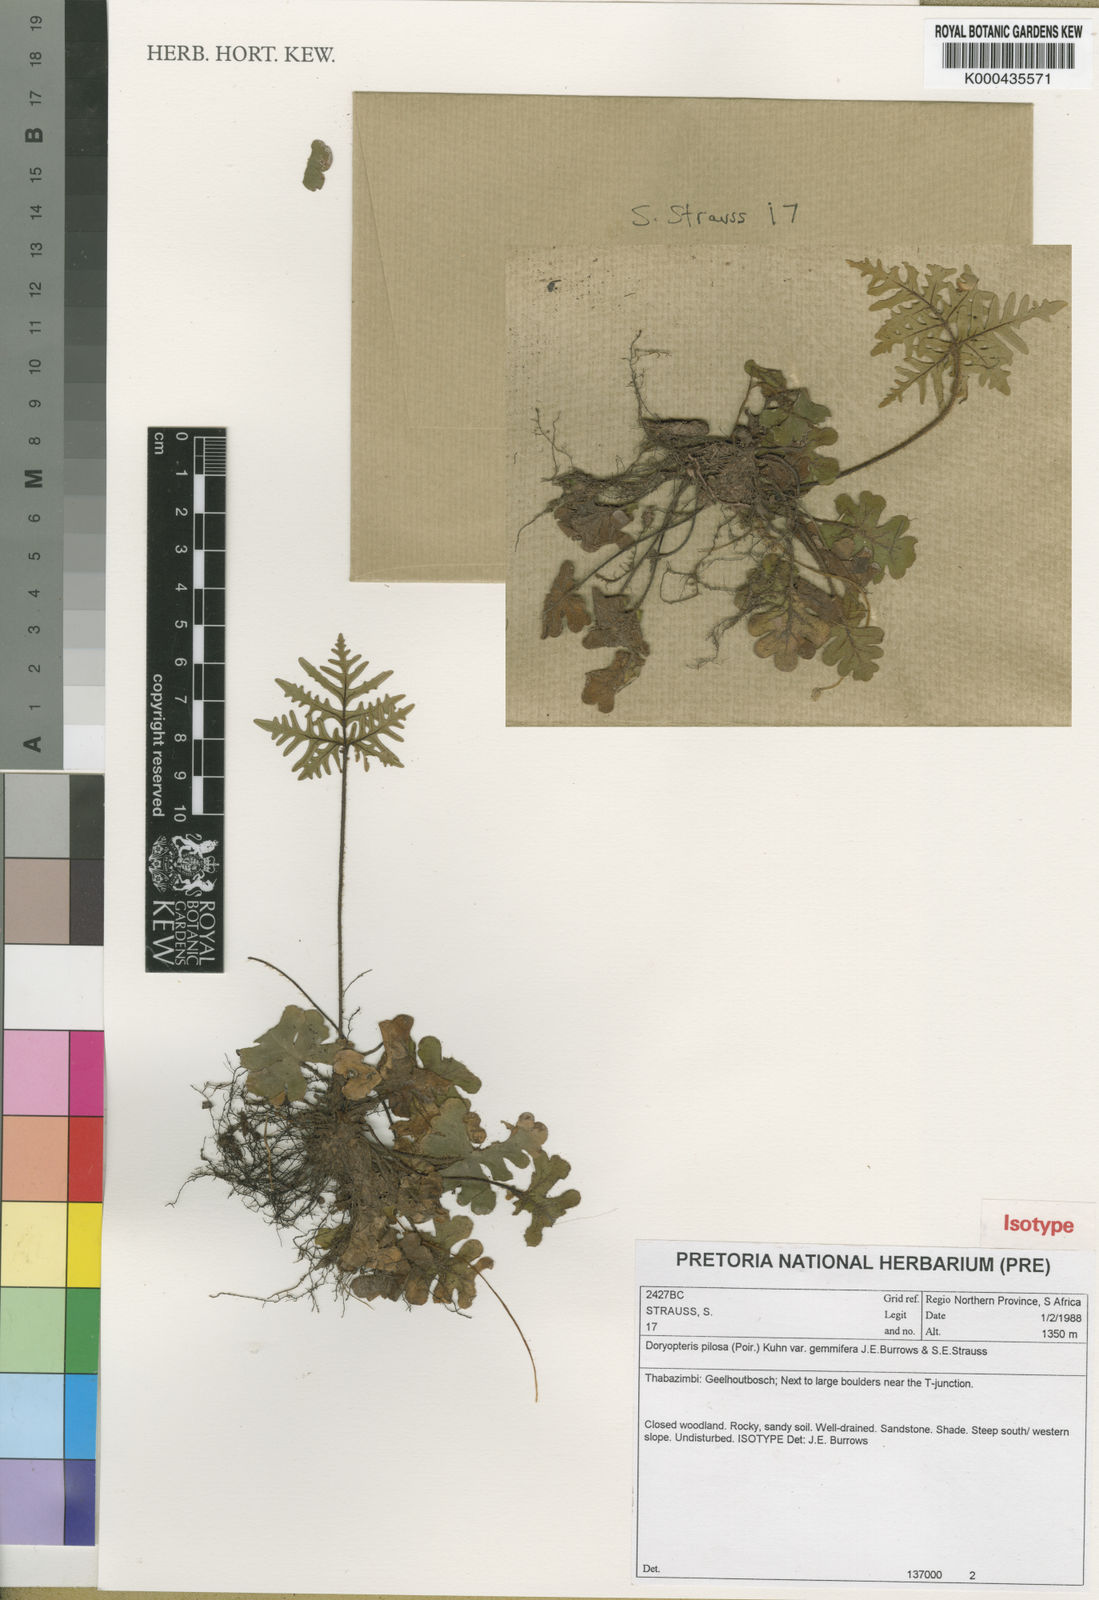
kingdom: Plantae
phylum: Tracheophyta
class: Polypodiopsida
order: Polypodiales
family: Pteridaceae
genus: Doryopteris
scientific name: Doryopteris pilosa
